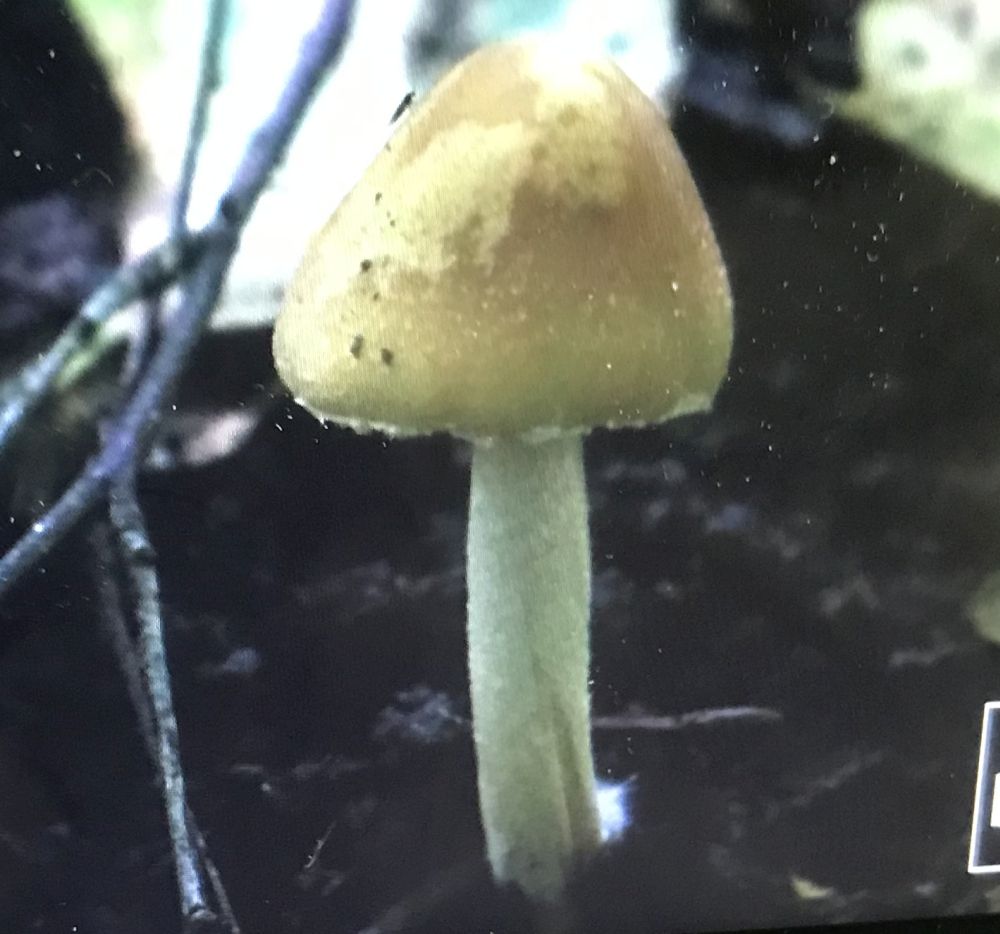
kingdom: Fungi
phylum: Basidiomycota
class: Agaricomycetes
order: Agaricales
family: Psathyrellaceae
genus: Candolleomyces
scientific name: Candolleomyces candolleanus
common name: Candolles mørkhat
